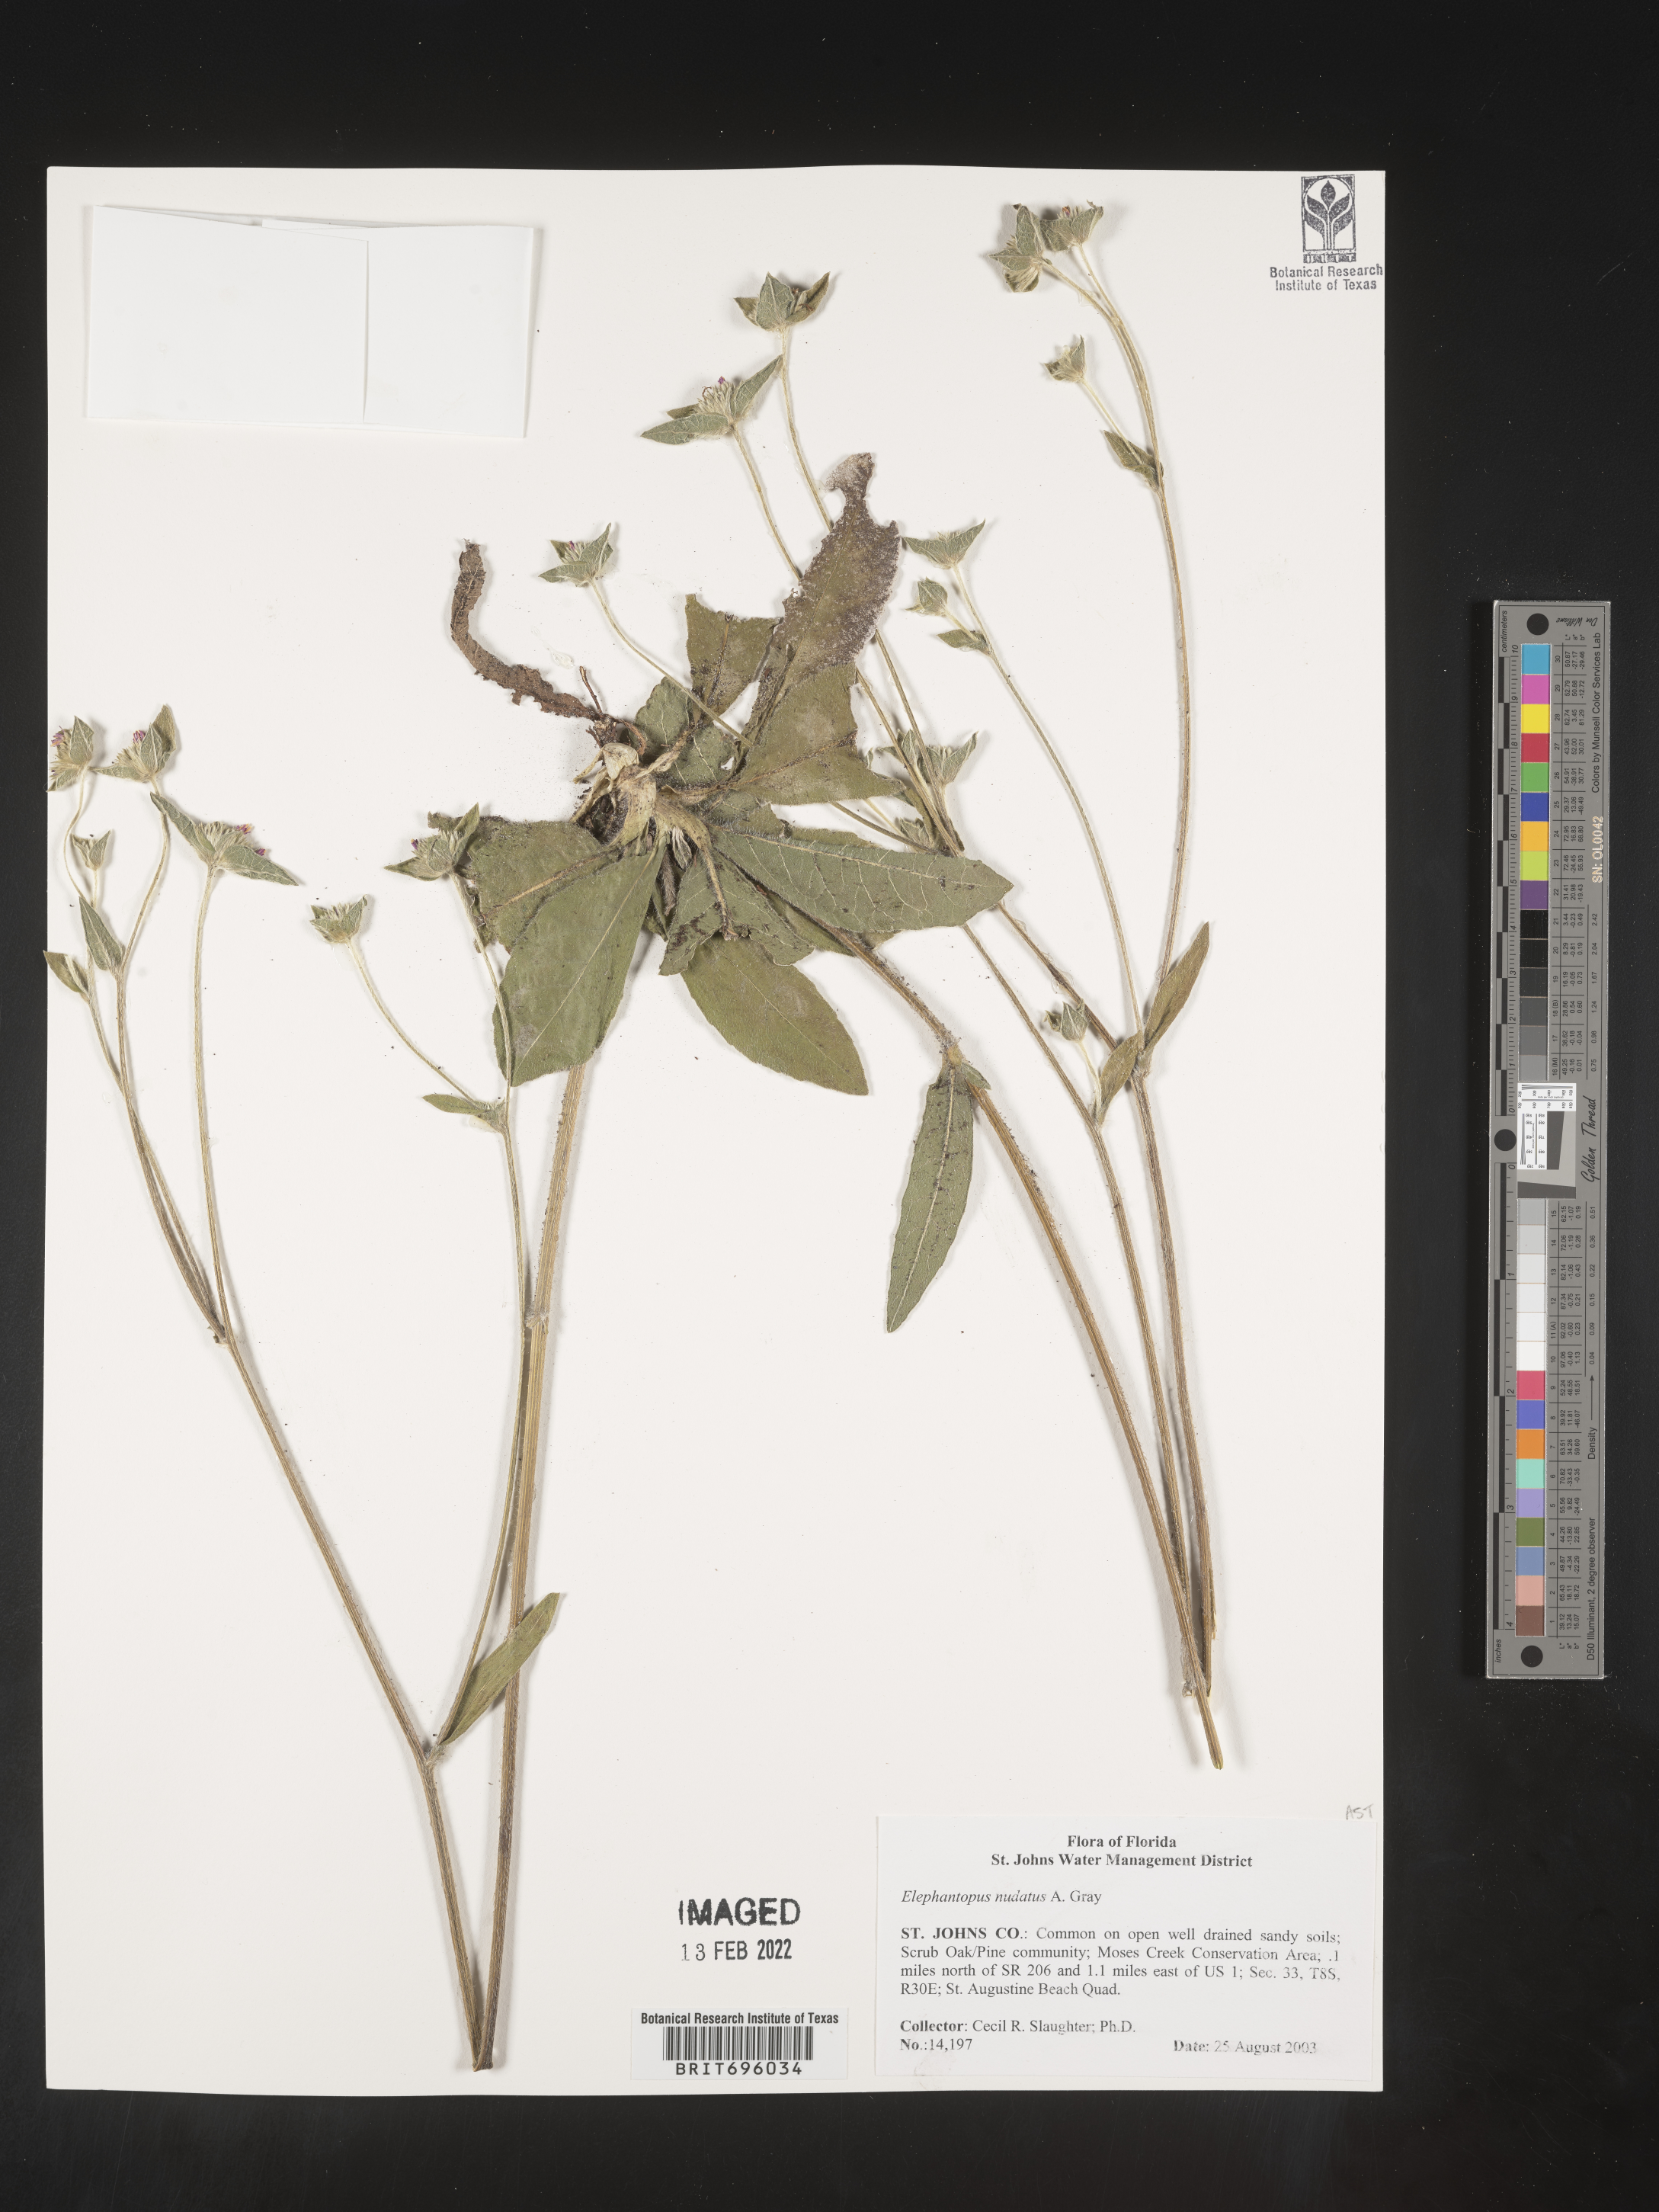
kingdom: Plantae
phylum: Tracheophyta
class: Magnoliopsida
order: Asterales
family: Asteraceae
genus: Elephantopus
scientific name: Elephantopus nudatus
